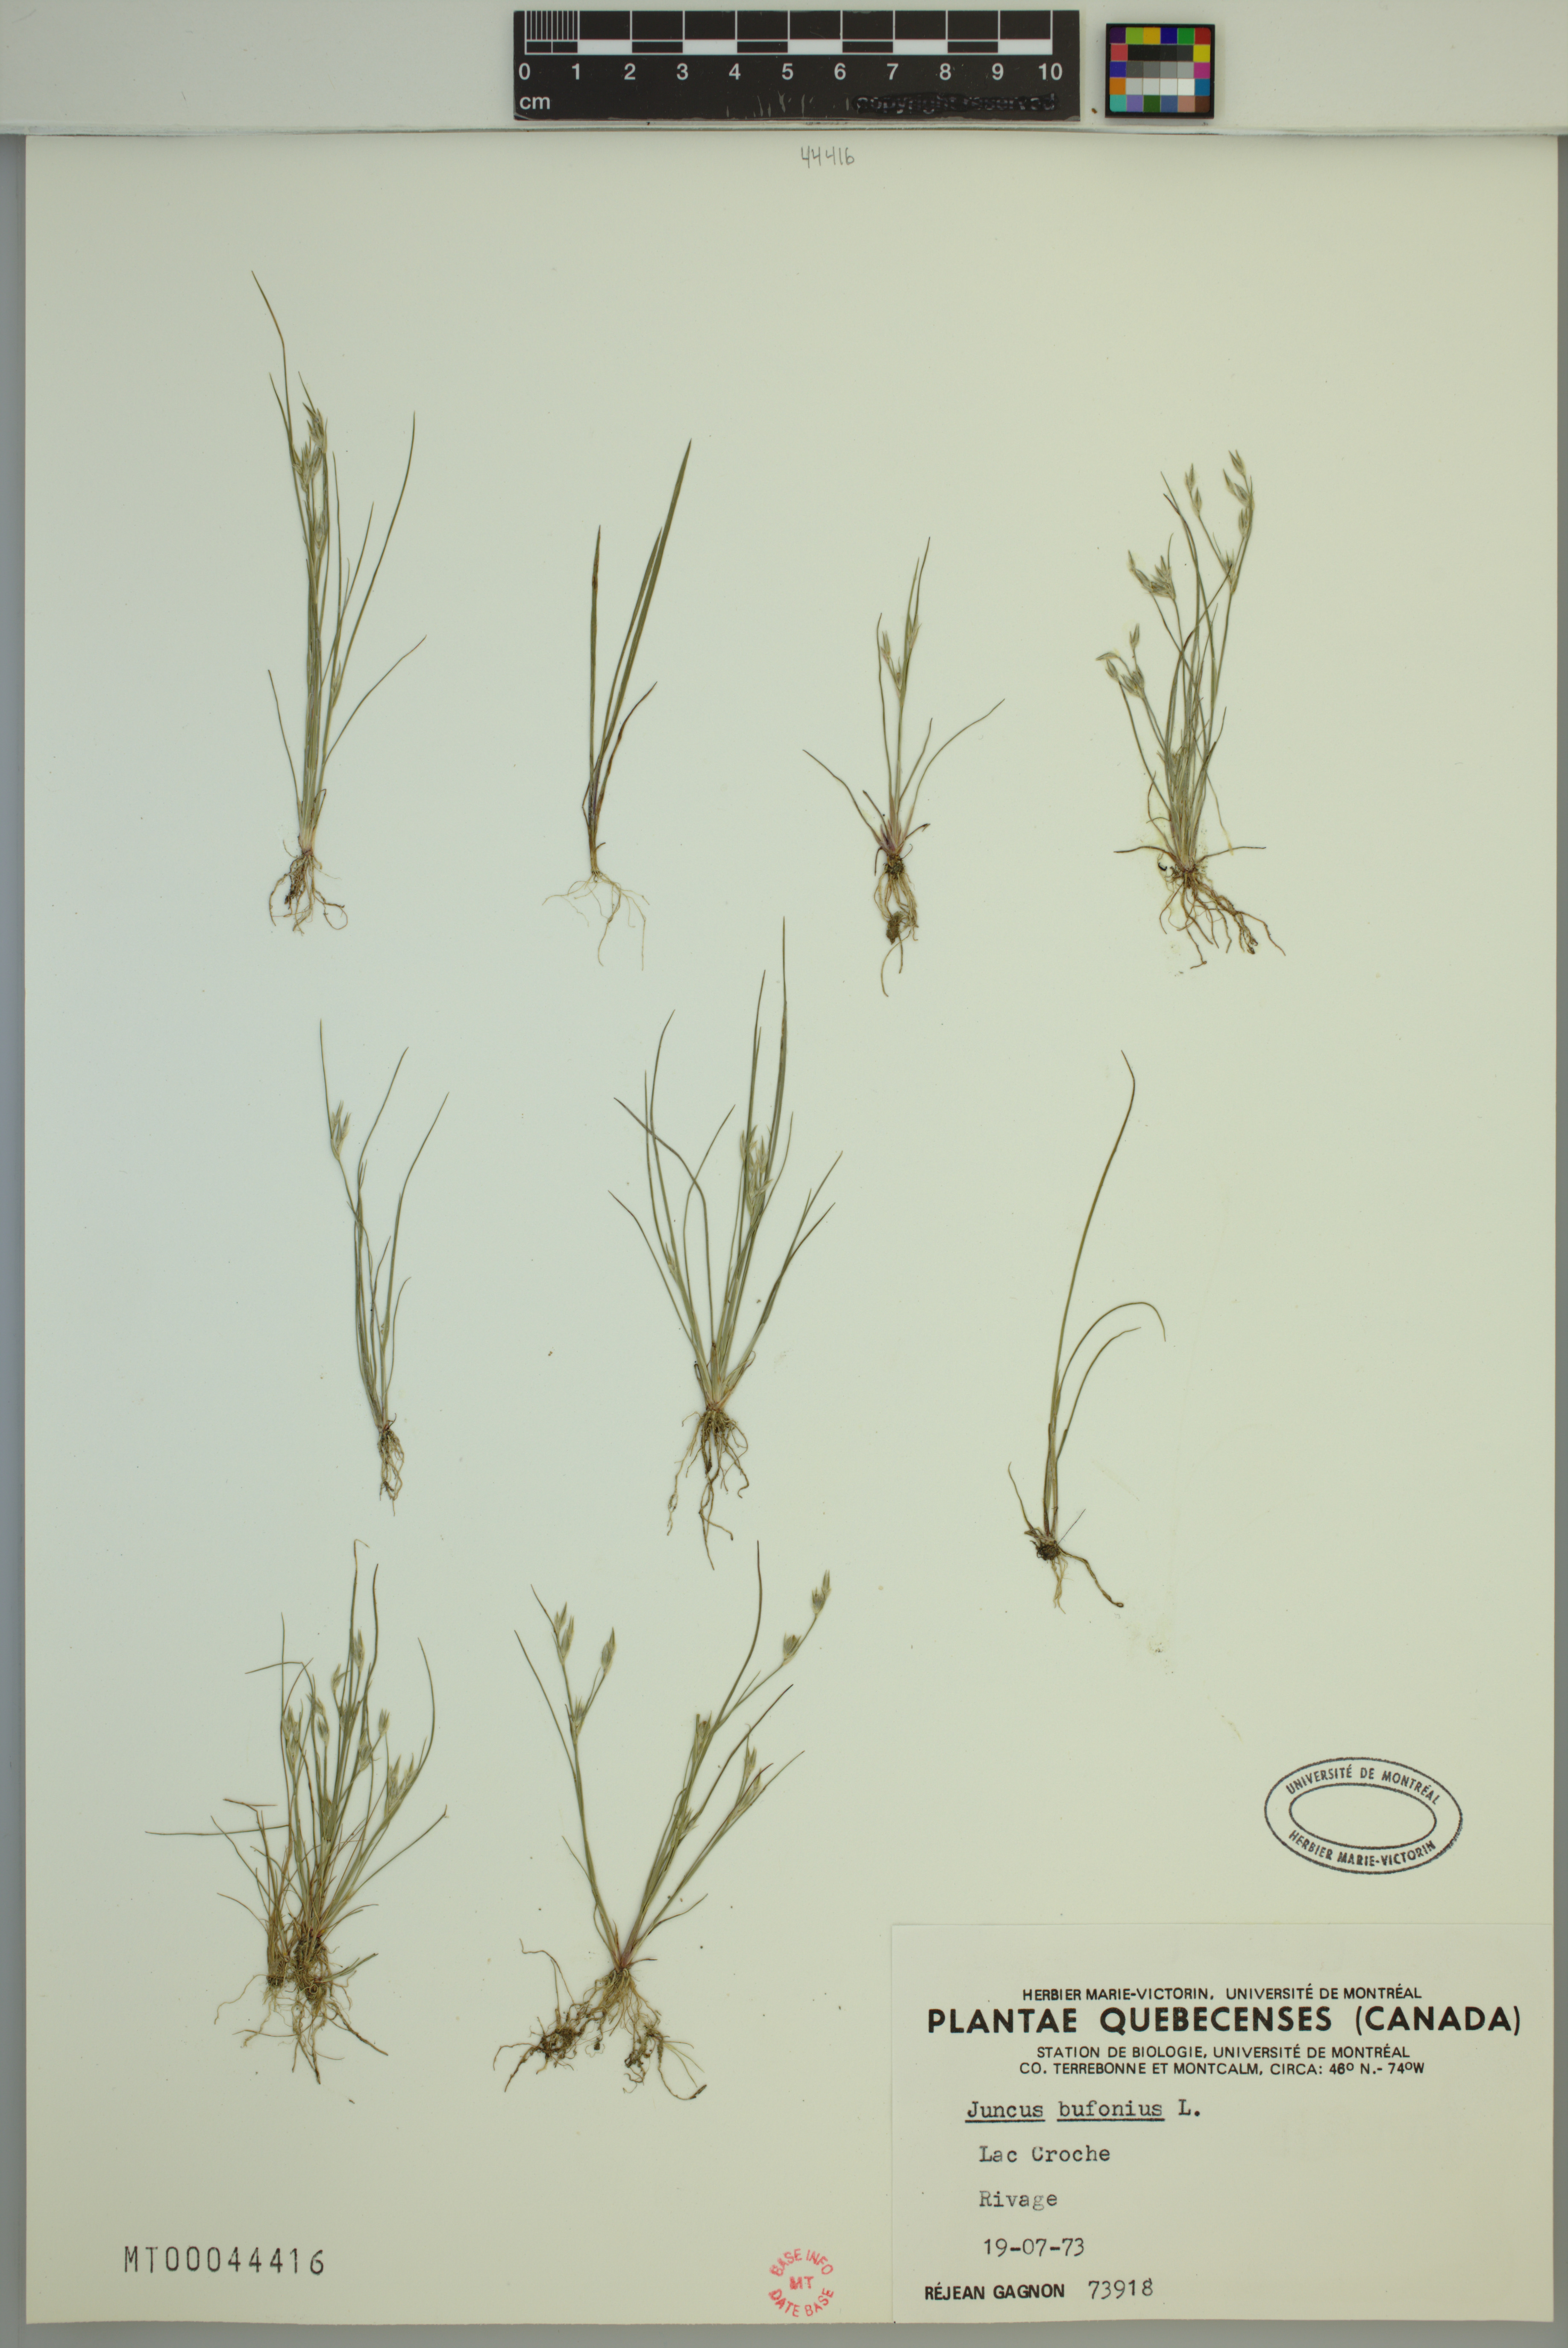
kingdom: Plantae
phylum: Tracheophyta
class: Liliopsida
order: Poales
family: Juncaceae
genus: Juncus
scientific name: Juncus bufonius
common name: Toad rush
